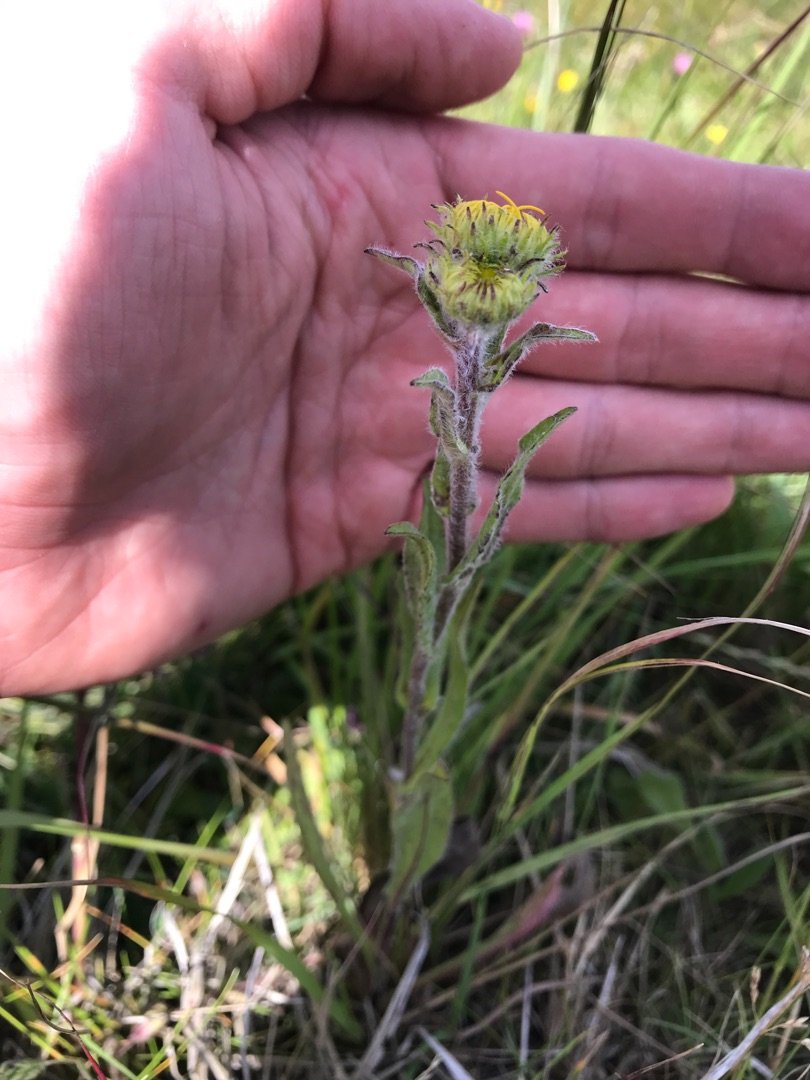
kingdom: Plantae
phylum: Tracheophyta
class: Magnoliopsida
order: Asterales
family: Asteraceae
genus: Pentanema
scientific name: Pentanema britannicum
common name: Soløje-alant
